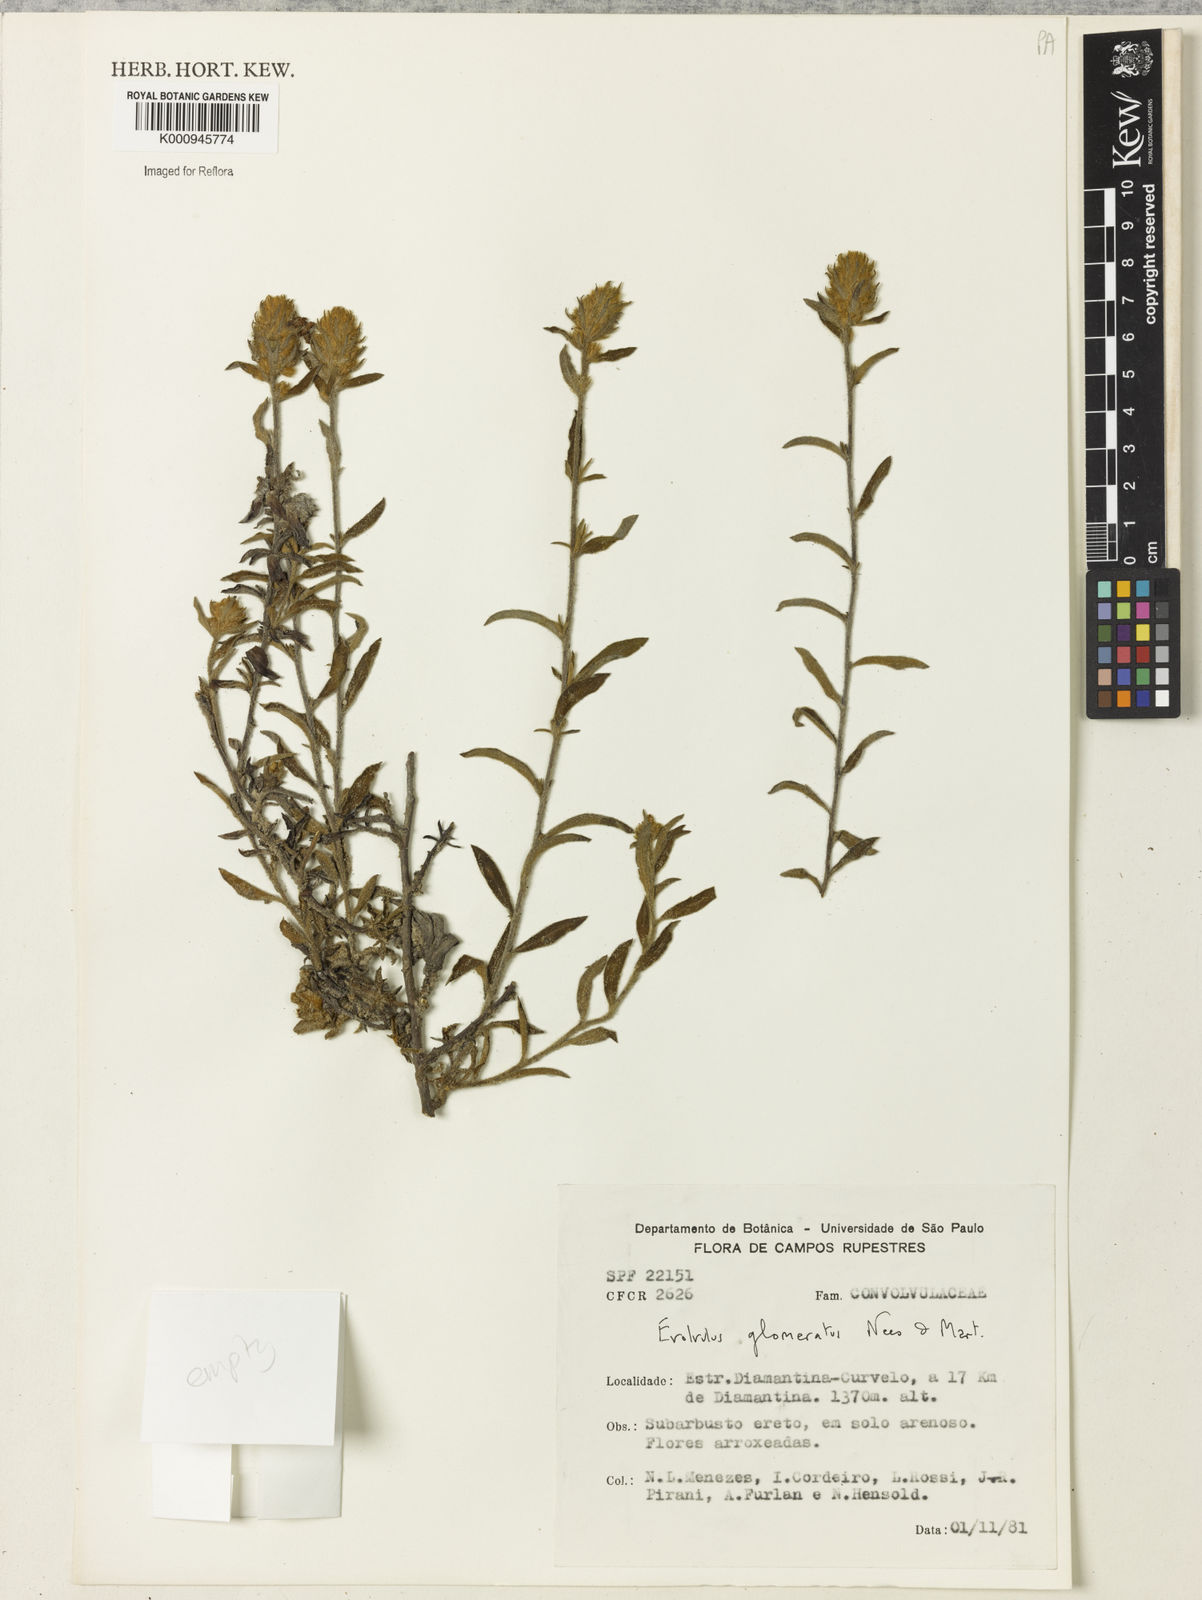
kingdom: Plantae
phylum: Tracheophyta
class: Magnoliopsida
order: Solanales
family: Convolvulaceae
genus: Evolvulus
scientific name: Evolvulus glomeratus
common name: Brazilian dwarf morning-glory
